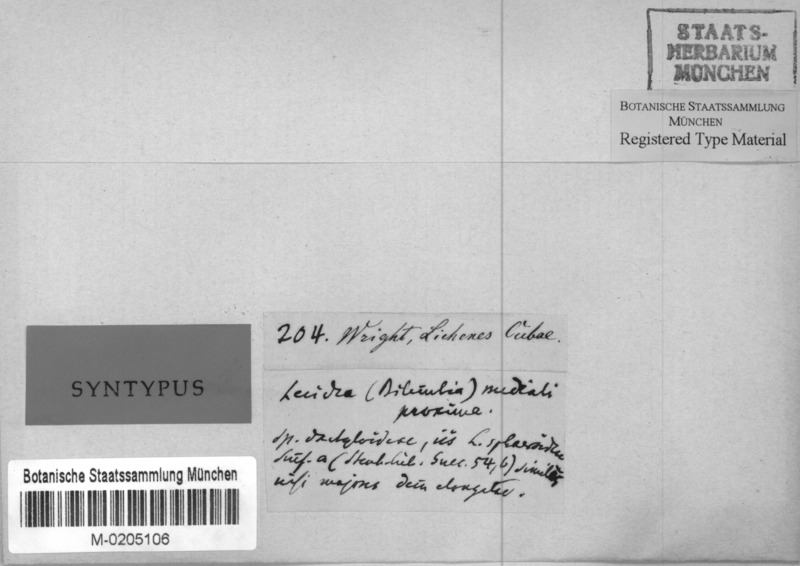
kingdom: Fungi
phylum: Ascomycota
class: Lecanoromycetes
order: Lecanorales
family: Ramalinaceae
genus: Bacidina
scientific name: Bacidina medialis
